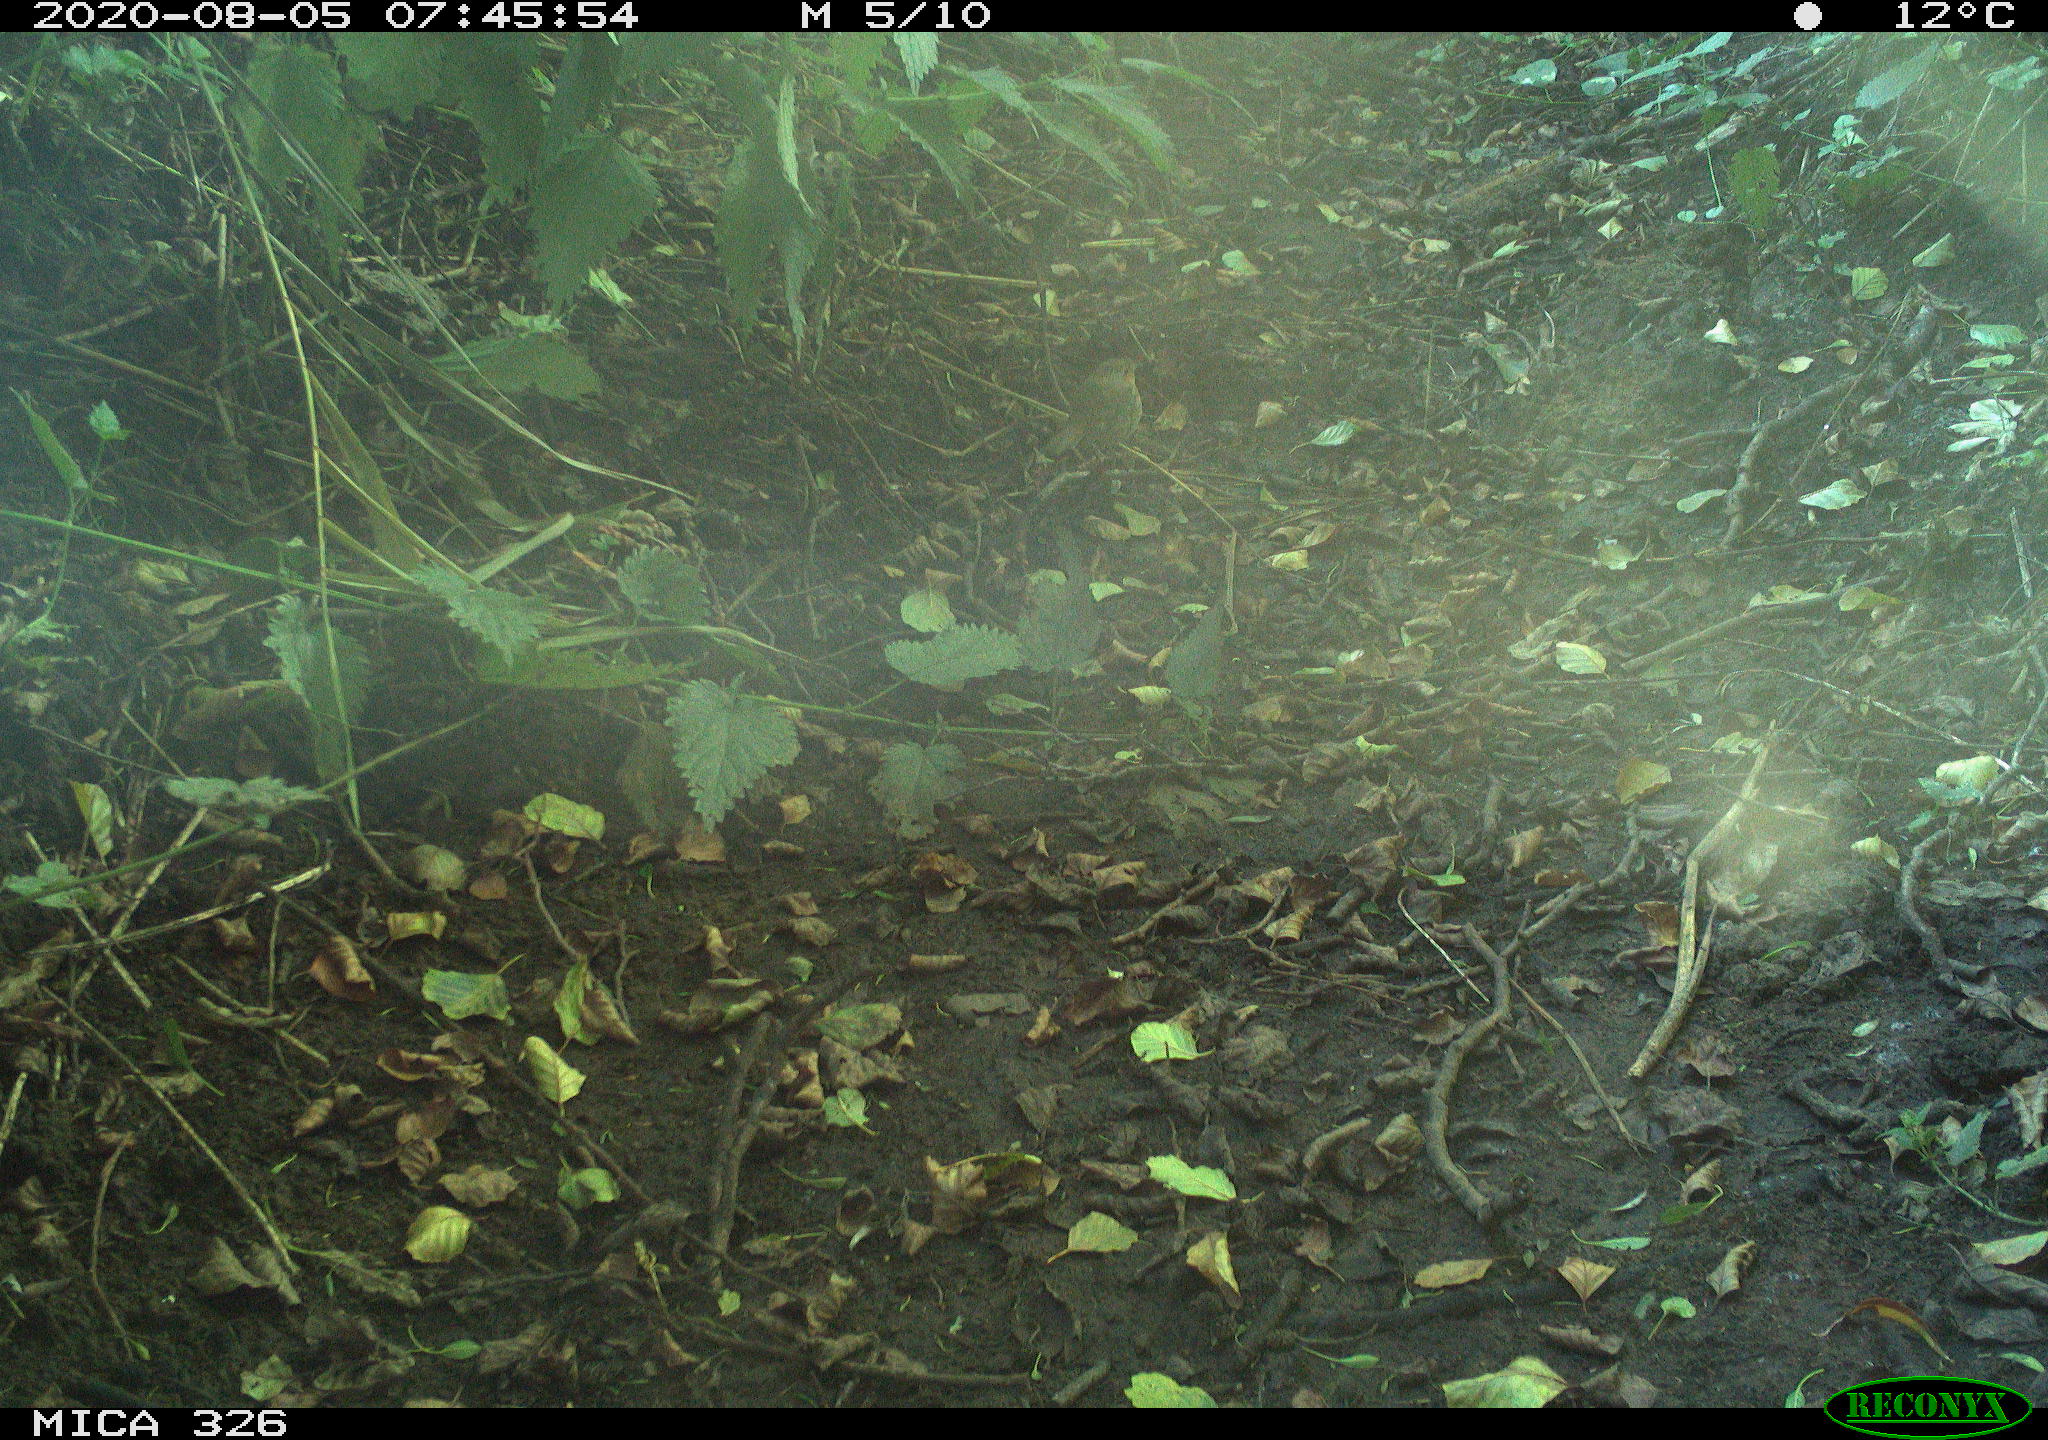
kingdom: Animalia
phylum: Chordata
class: Aves
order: Passeriformes
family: Muscicapidae
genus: Erithacus
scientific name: Erithacus rubecula
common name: European robin
